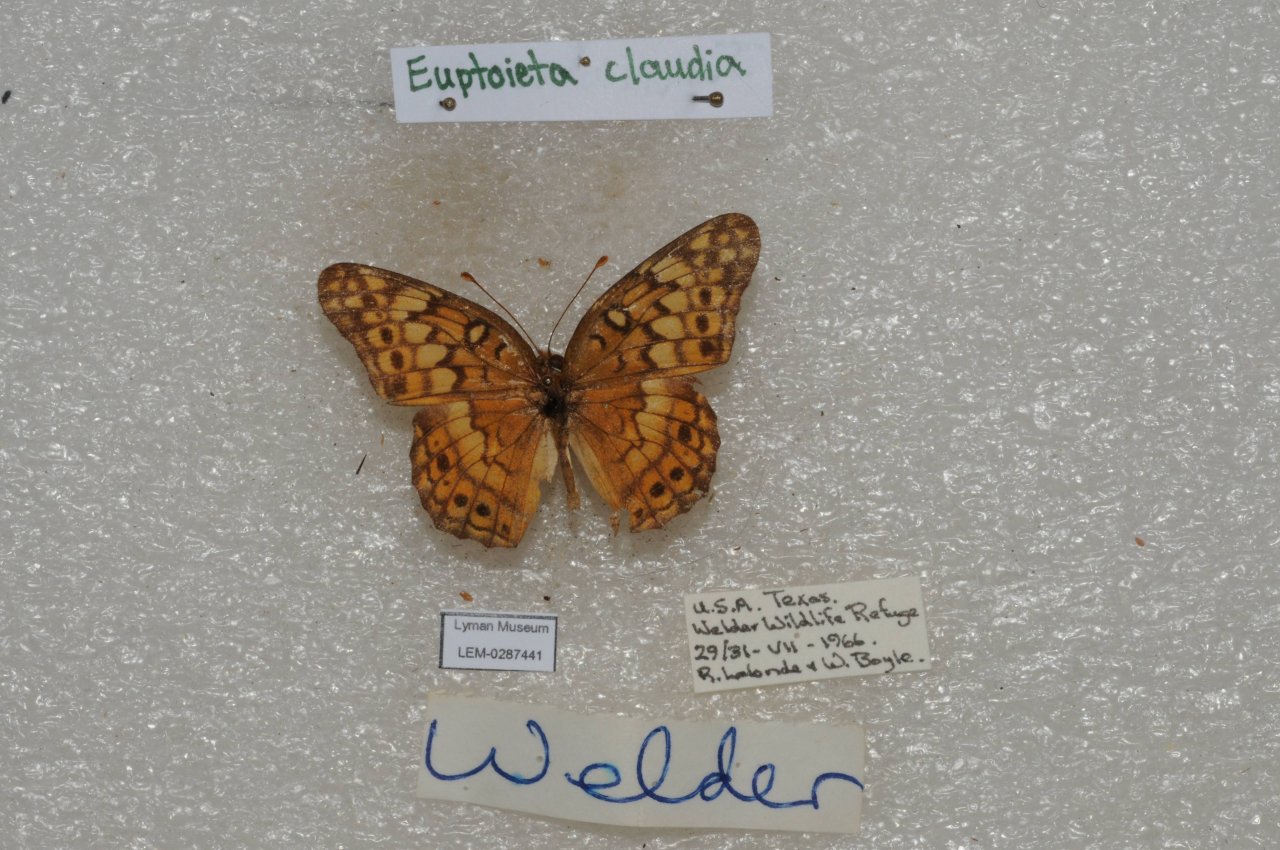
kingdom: Animalia
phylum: Arthropoda
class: Insecta
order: Lepidoptera
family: Nymphalidae
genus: Euptoieta
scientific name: Euptoieta claudia
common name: Variegated Fritillary
